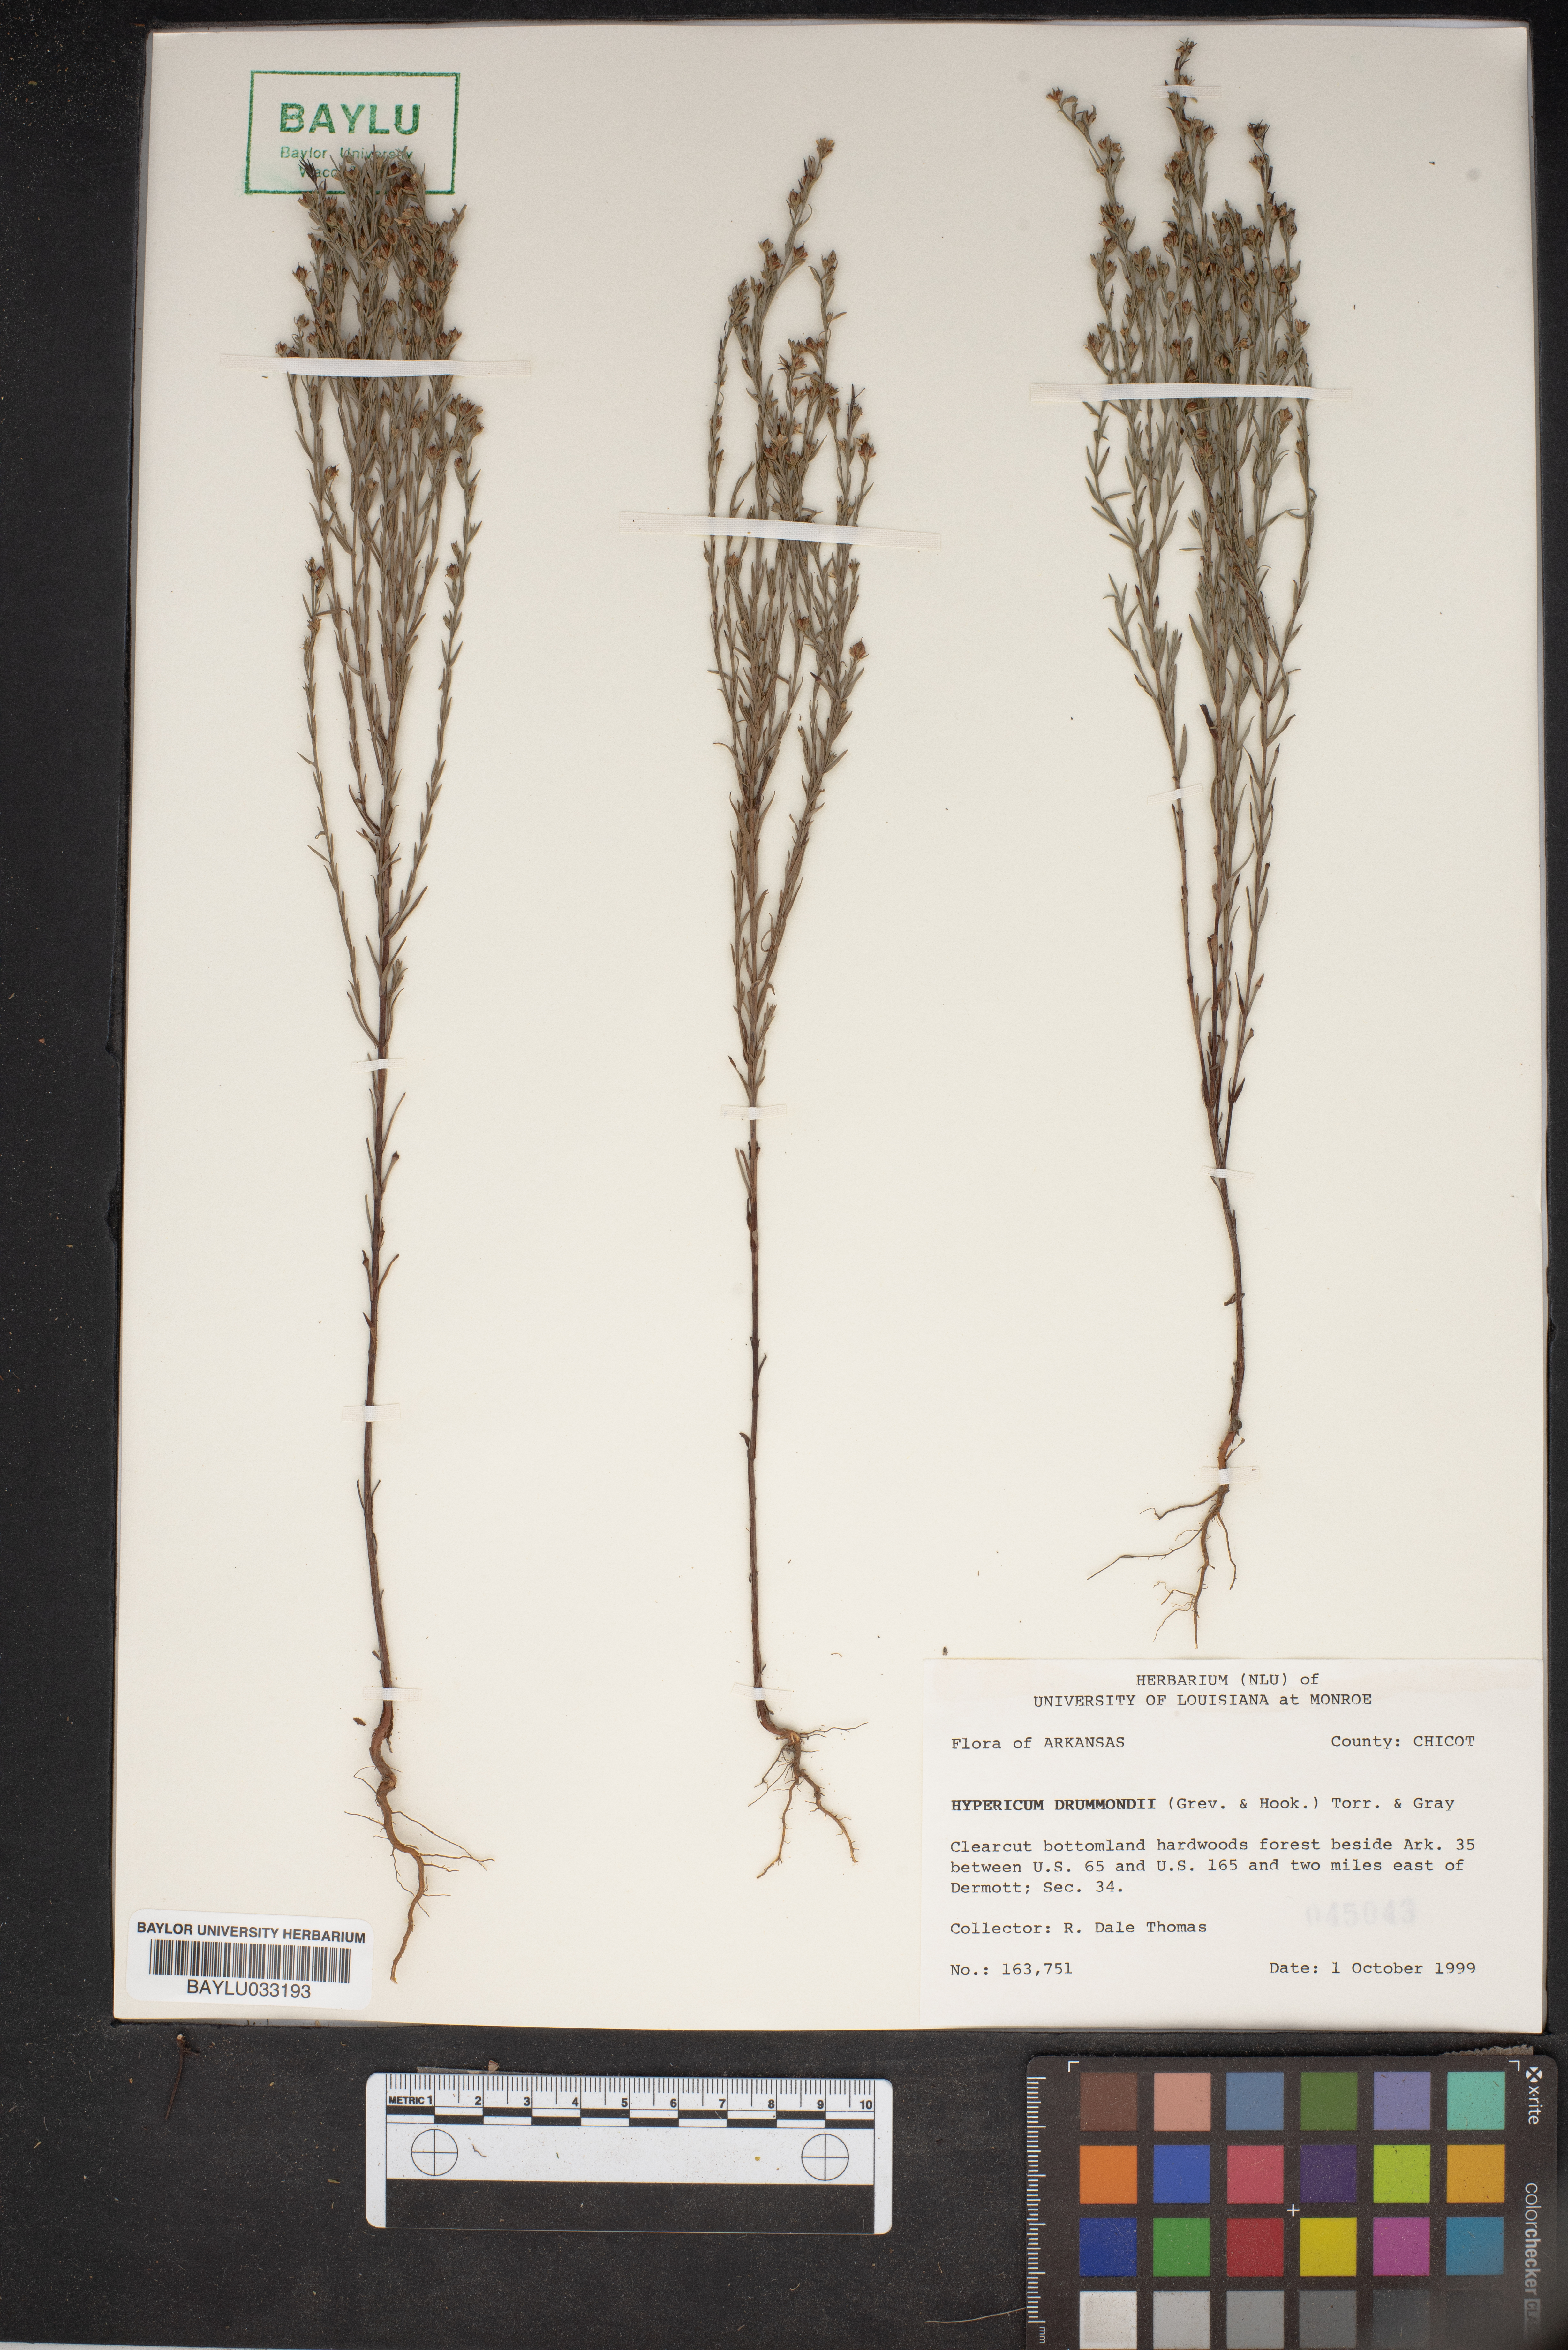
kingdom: Plantae
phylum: Tracheophyta
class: Magnoliopsida
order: Malpighiales
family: Hypericaceae
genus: Hypericum
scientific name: Hypericum drummondii
